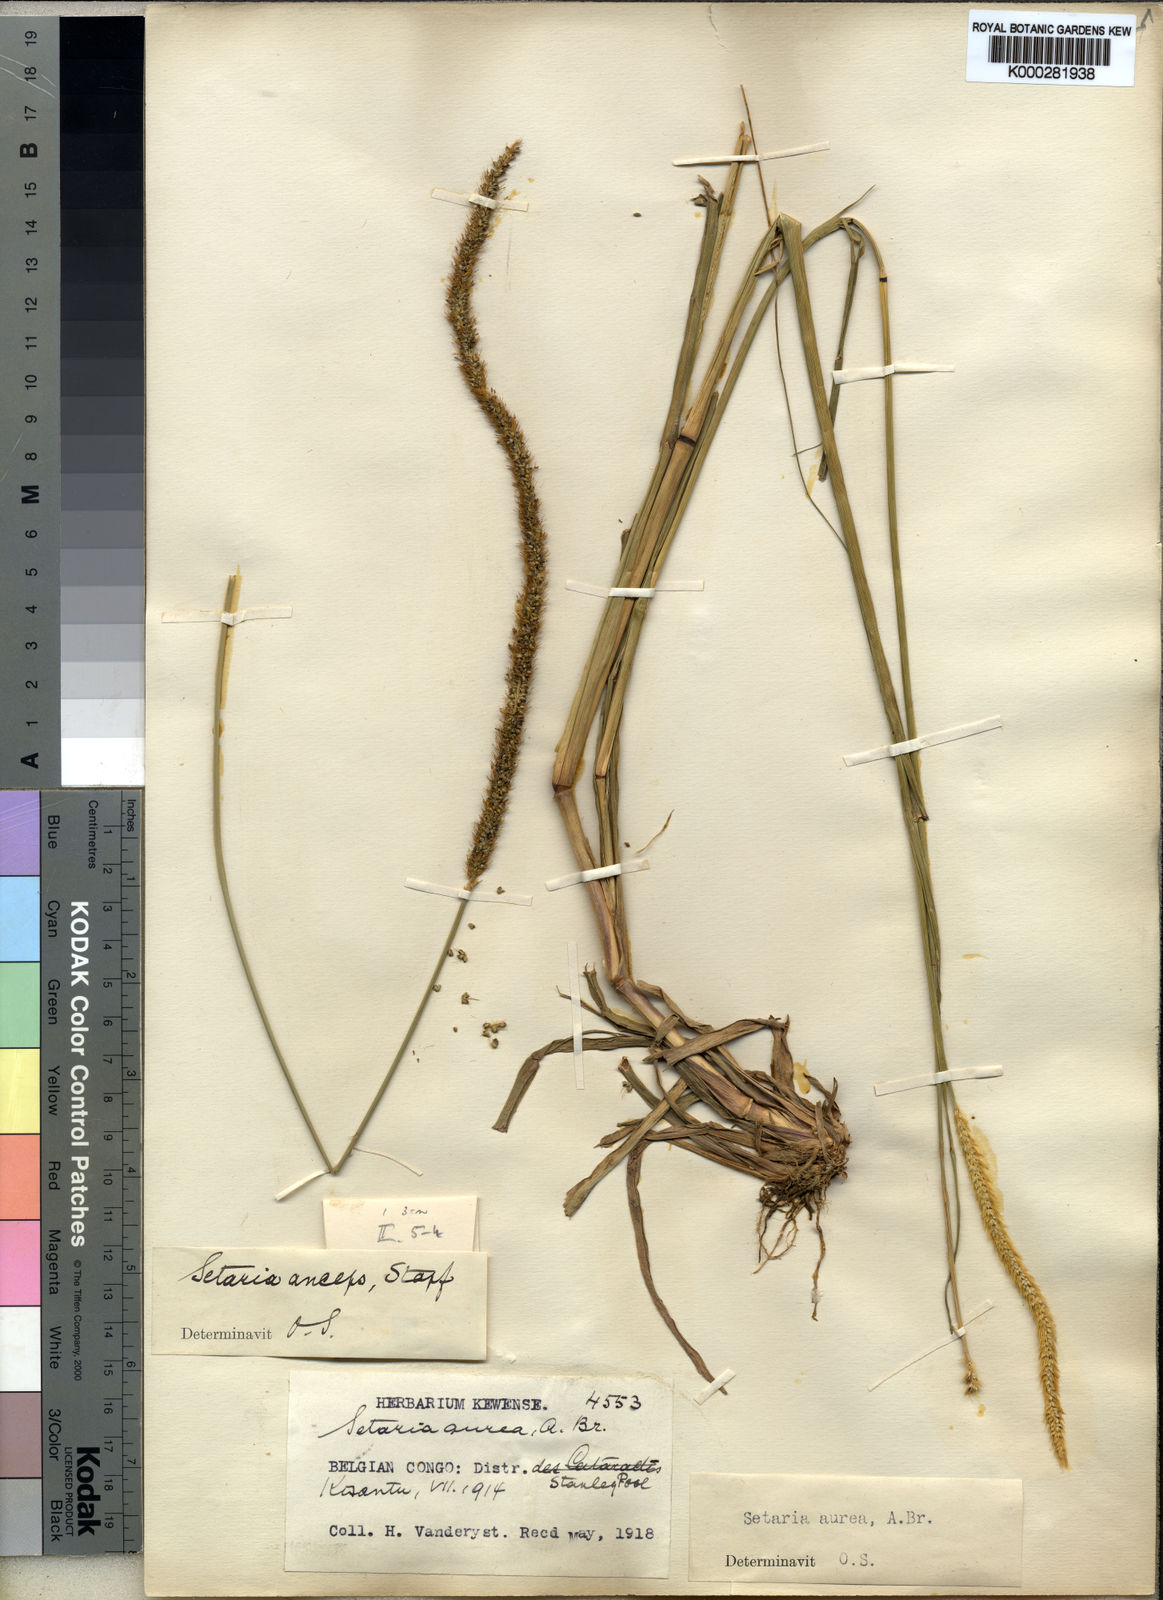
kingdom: Plantae
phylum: Tracheophyta
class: Liliopsida
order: Poales
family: Poaceae
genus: Setaria
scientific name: Setaria sphacelata
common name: African bristlegrass
